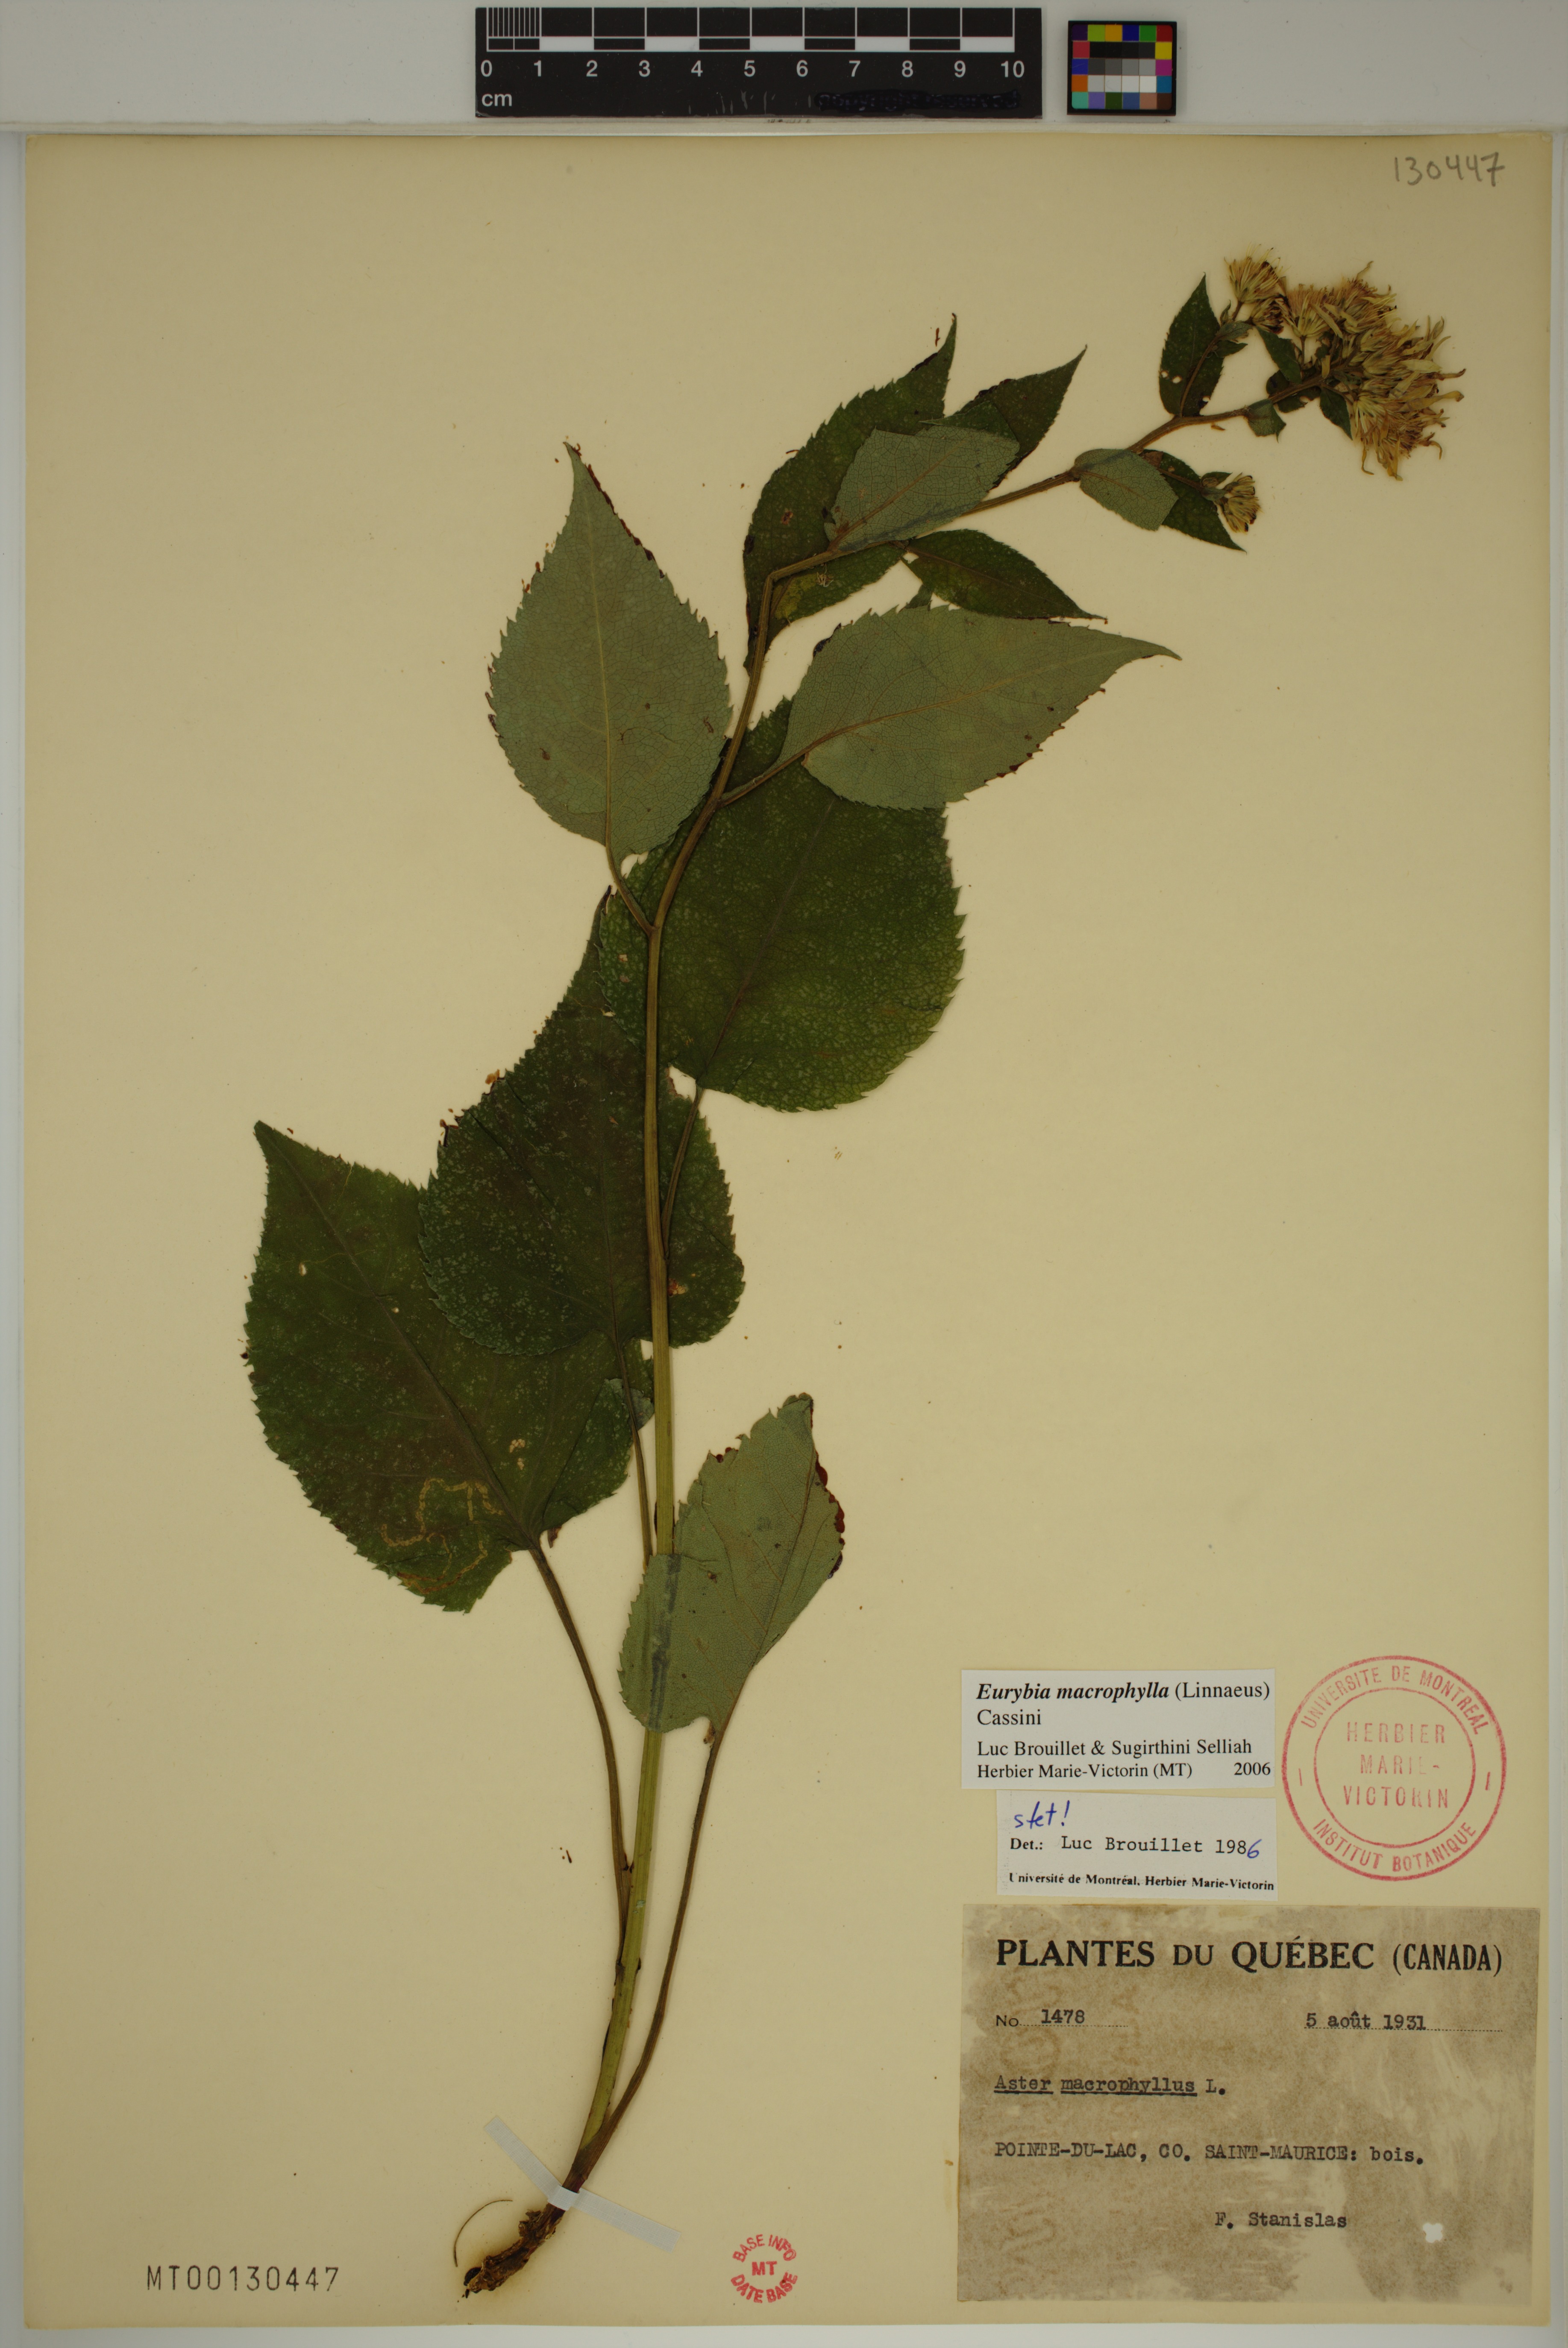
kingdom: Plantae
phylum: Tracheophyta
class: Magnoliopsida
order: Asterales
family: Asteraceae
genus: Eurybia
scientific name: Eurybia macrophylla
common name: Big-leaved aster
